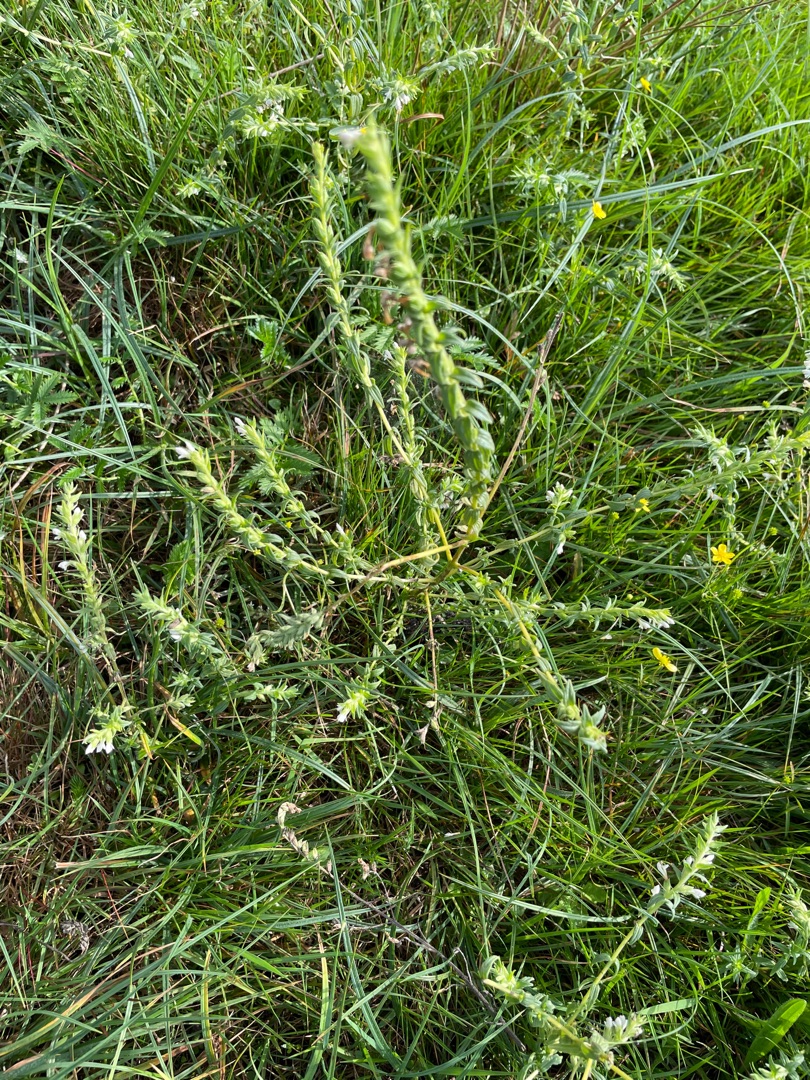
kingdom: Plantae
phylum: Tracheophyta
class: Magnoliopsida
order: Lamiales
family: Orobanchaceae
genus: Odontites
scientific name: Odontites vulgaris
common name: Høst-rødtop
